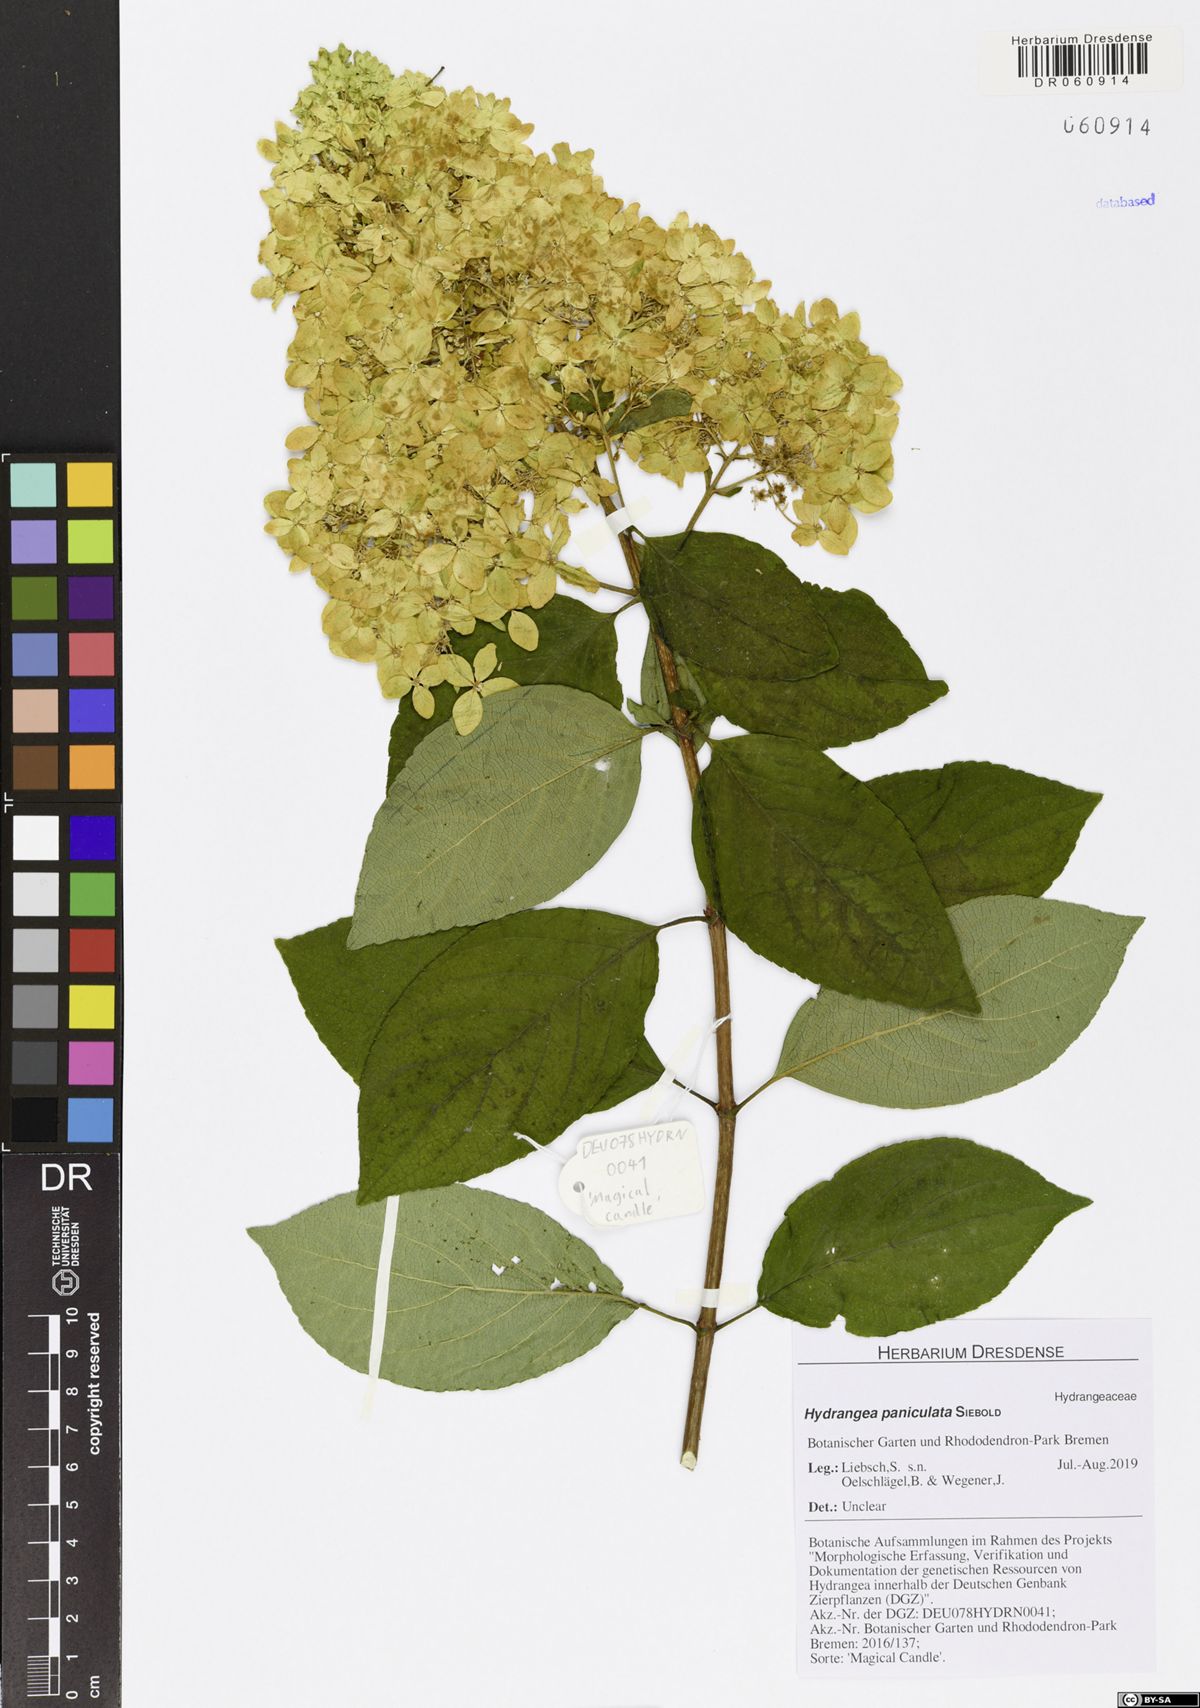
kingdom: Plantae
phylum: Tracheophyta
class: Magnoliopsida
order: Cornales
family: Hydrangeaceae
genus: Hydrangea
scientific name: Hydrangea paniculata
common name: Panicled hydrangea
